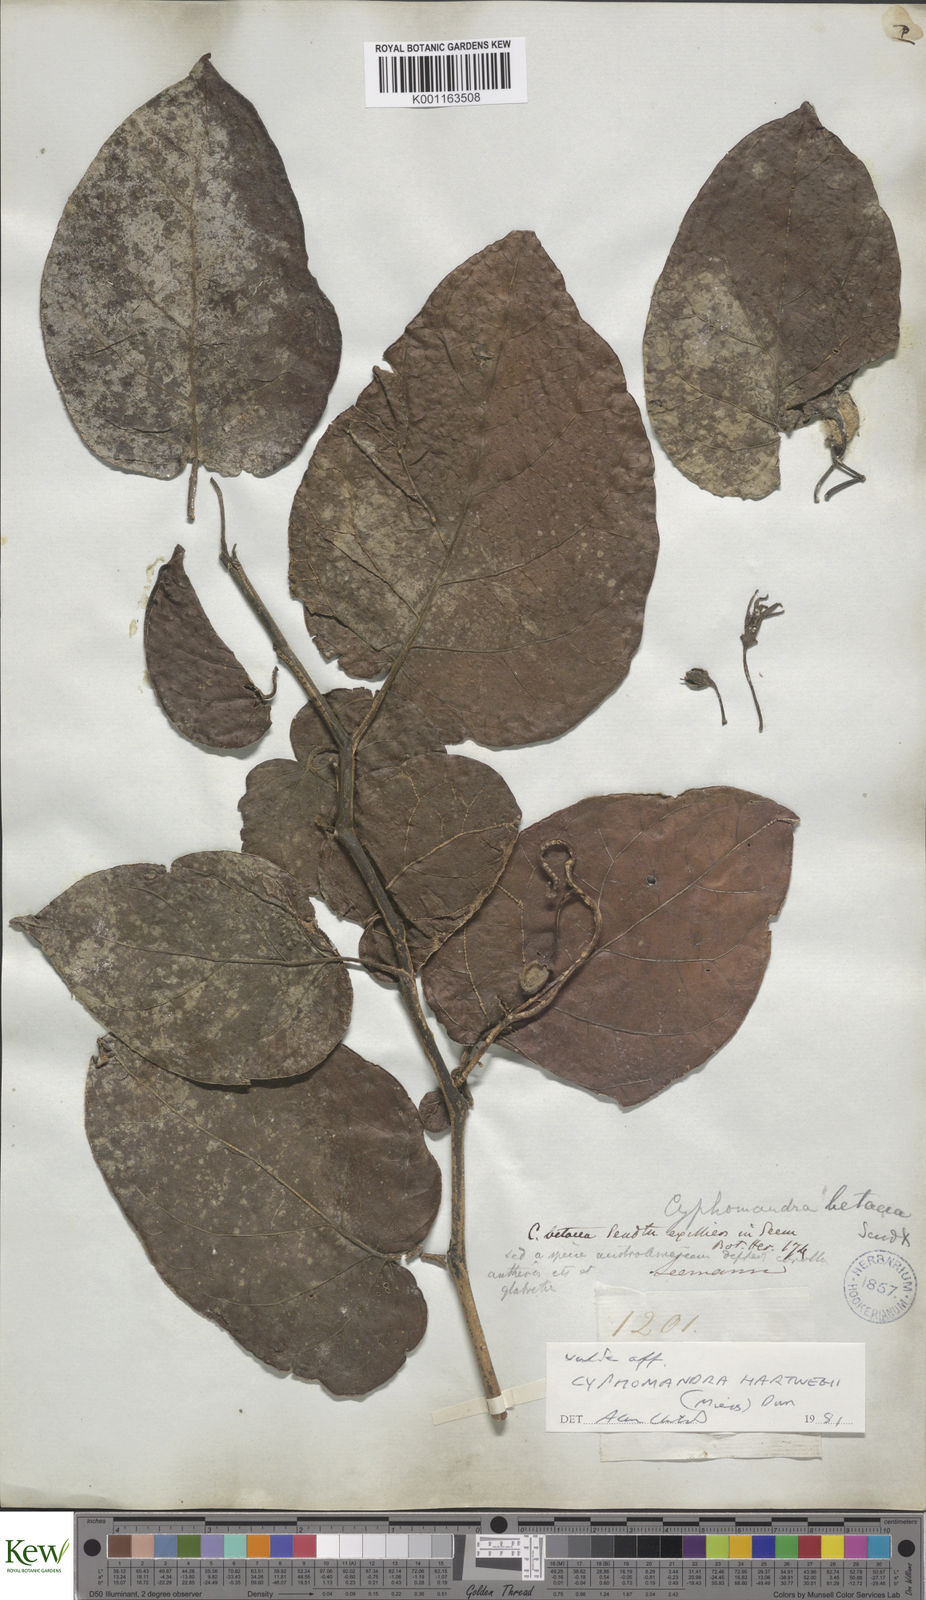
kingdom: Plantae
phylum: Tracheophyta
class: Magnoliopsida
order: Solanales
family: Solanaceae
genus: Solanum
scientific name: Solanum splendens
